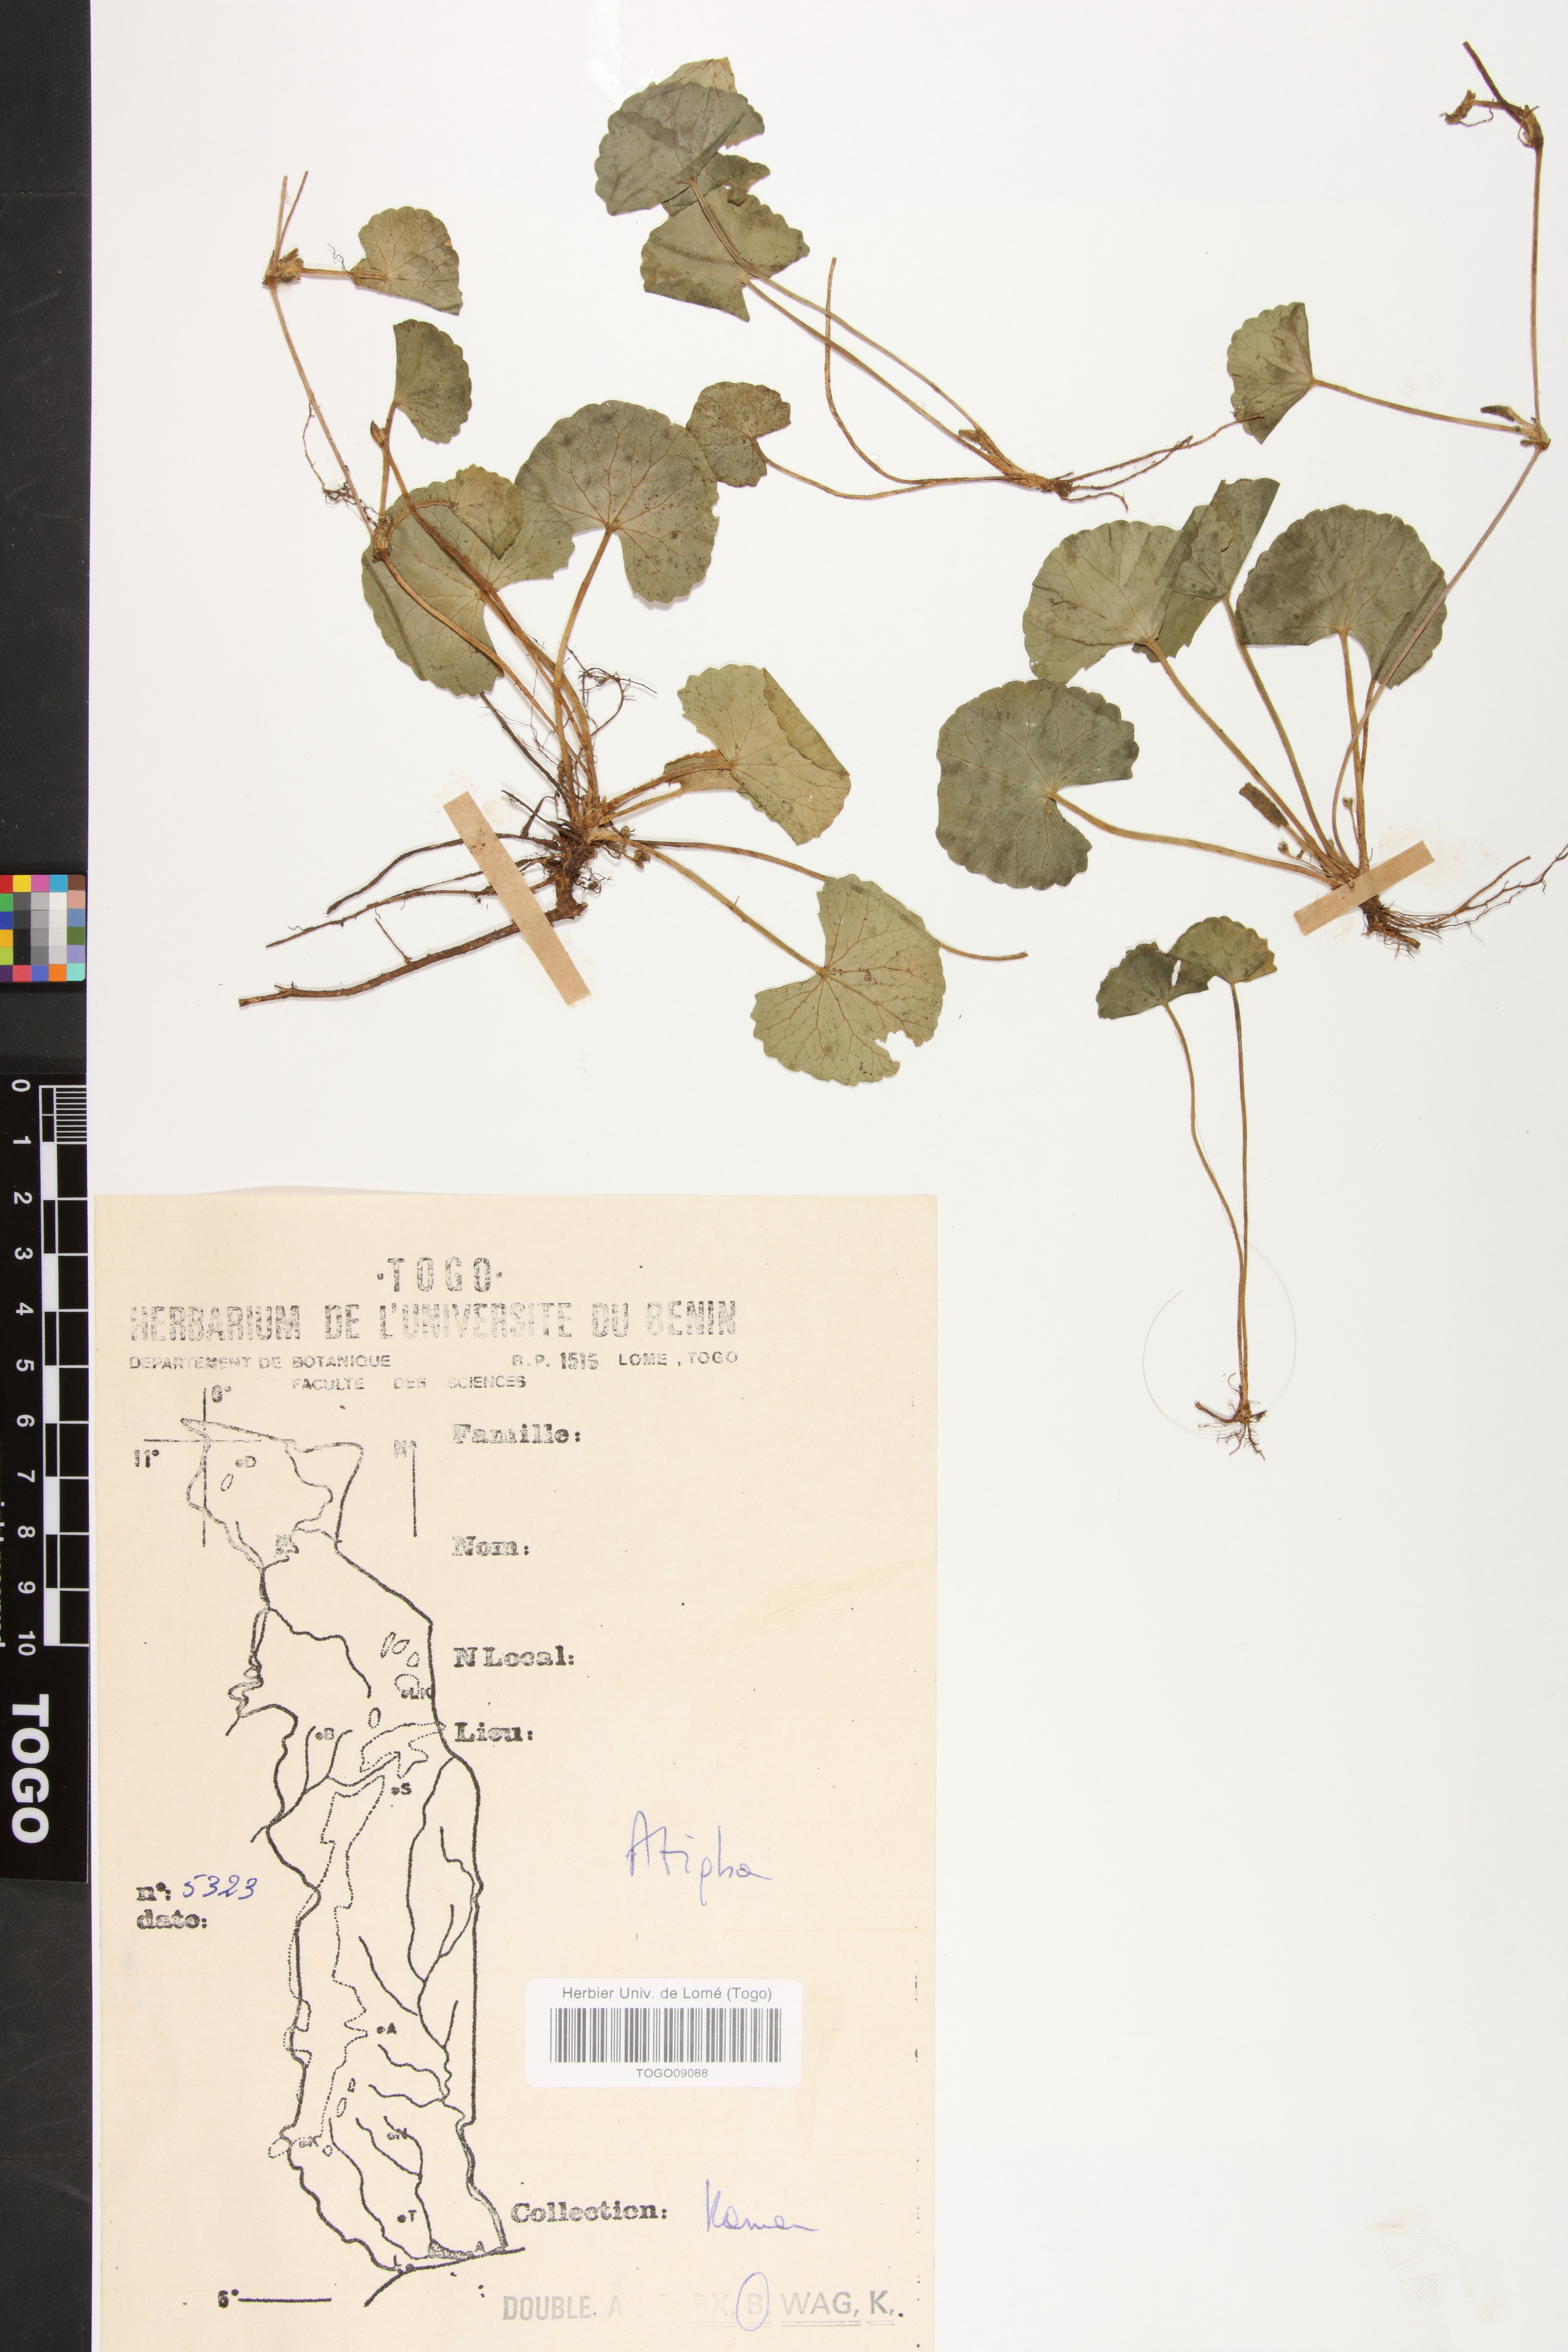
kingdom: Plantae
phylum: Tracheophyta
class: Magnoliopsida
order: Apiales
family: Apiaceae
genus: Centella
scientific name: Centella asiatica
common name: Spadeleaf
